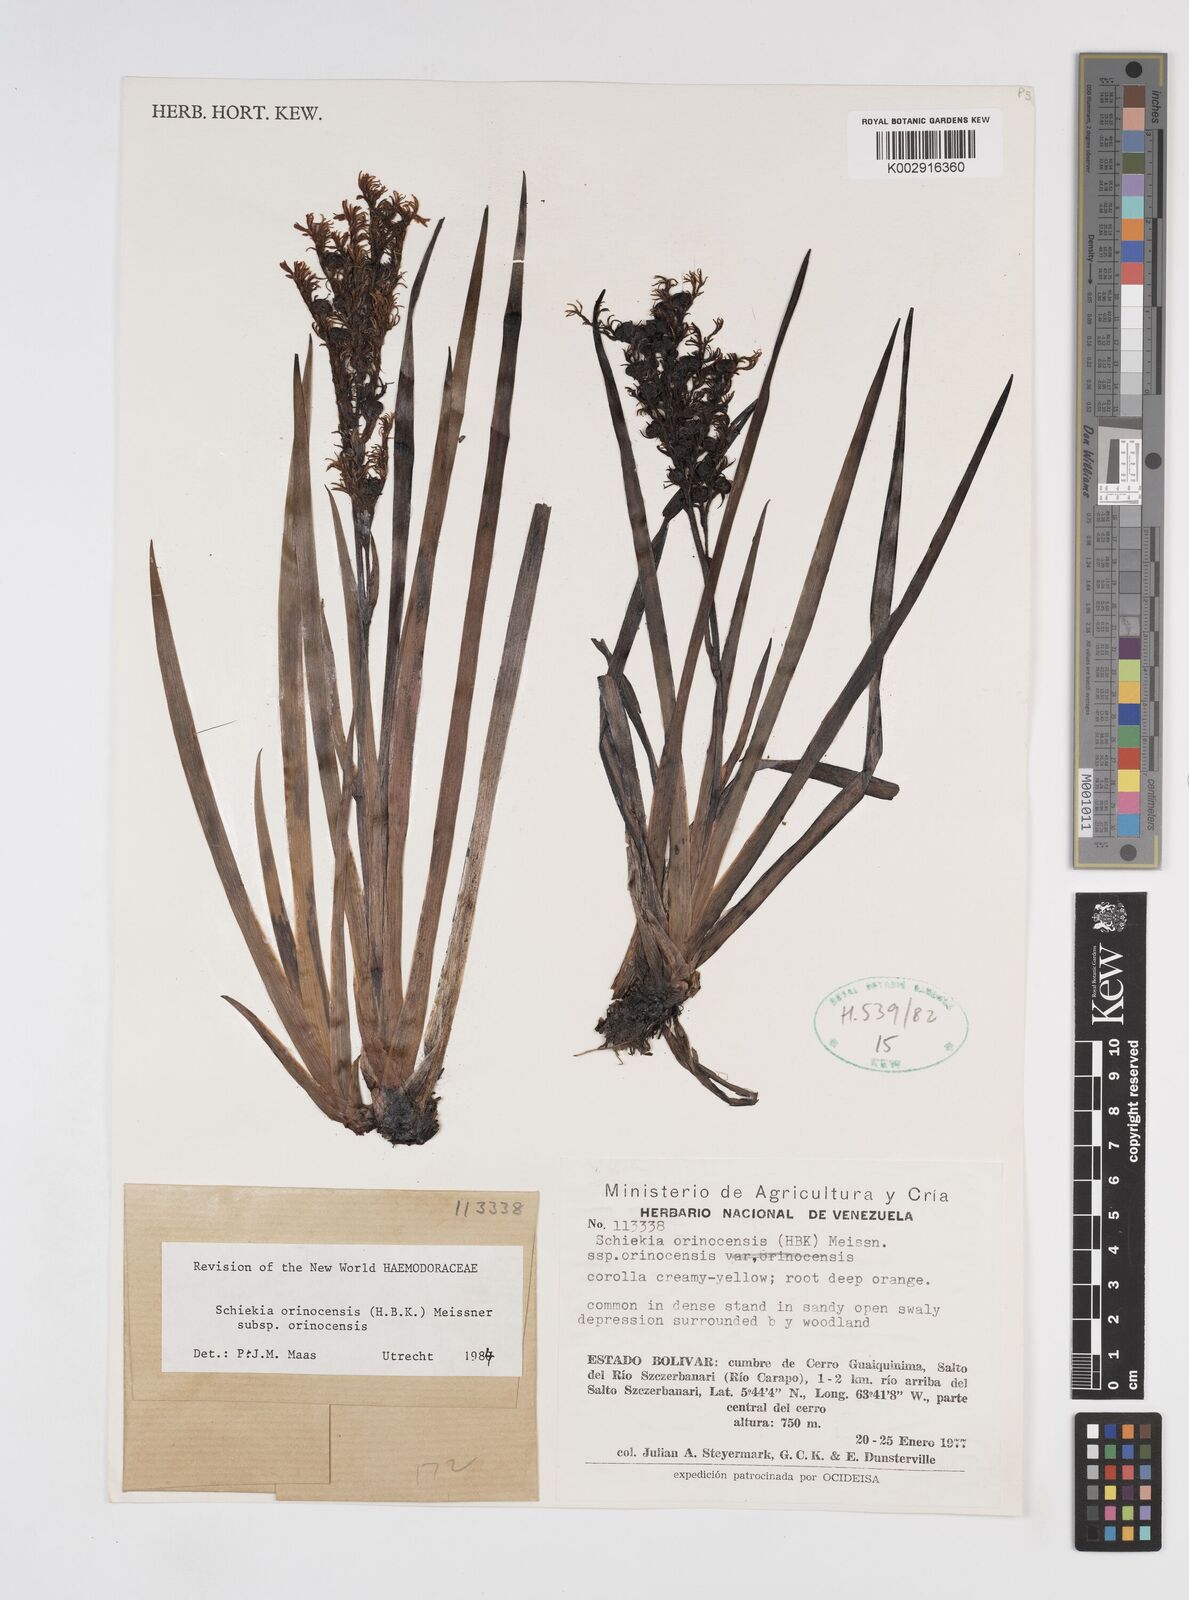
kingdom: Plantae
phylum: Tracheophyta
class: Liliopsida
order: Commelinales
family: Haemodoraceae
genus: Schiekia
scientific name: Schiekia orinocensis
